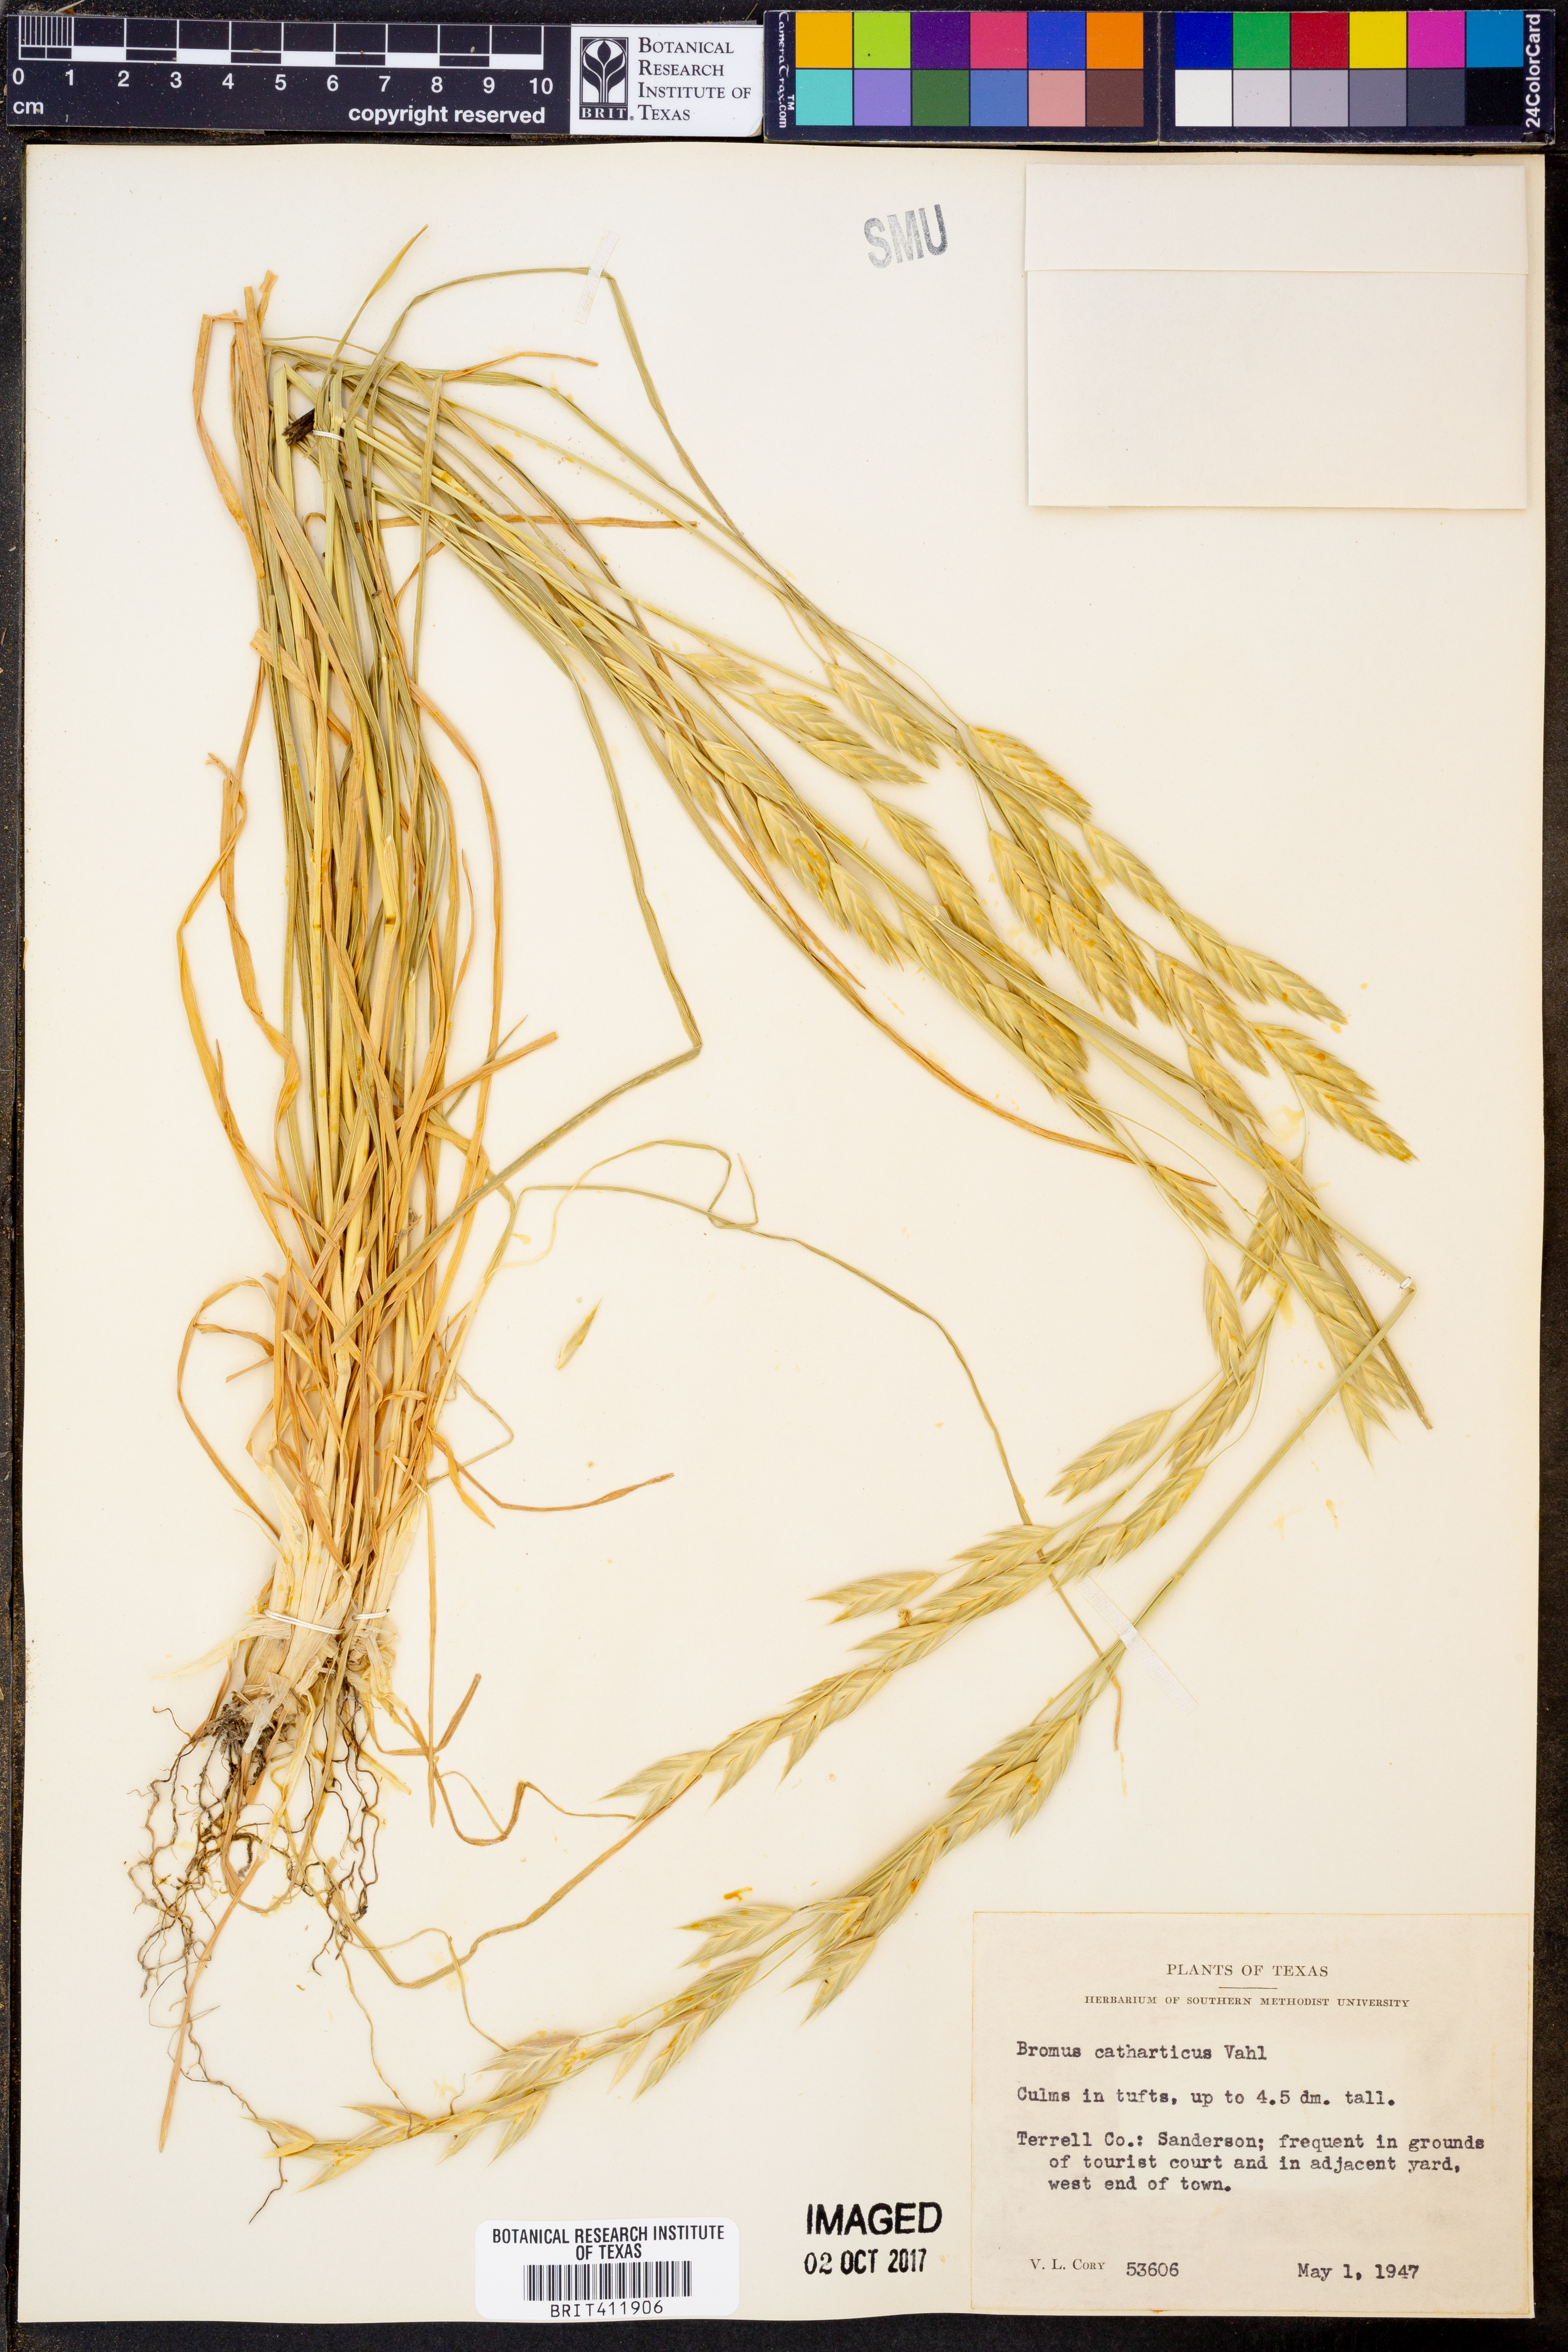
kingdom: Plantae
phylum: Tracheophyta
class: Liliopsida
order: Poales
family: Poaceae
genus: Bromus
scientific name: Bromus catharticus
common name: Rescuegrass
